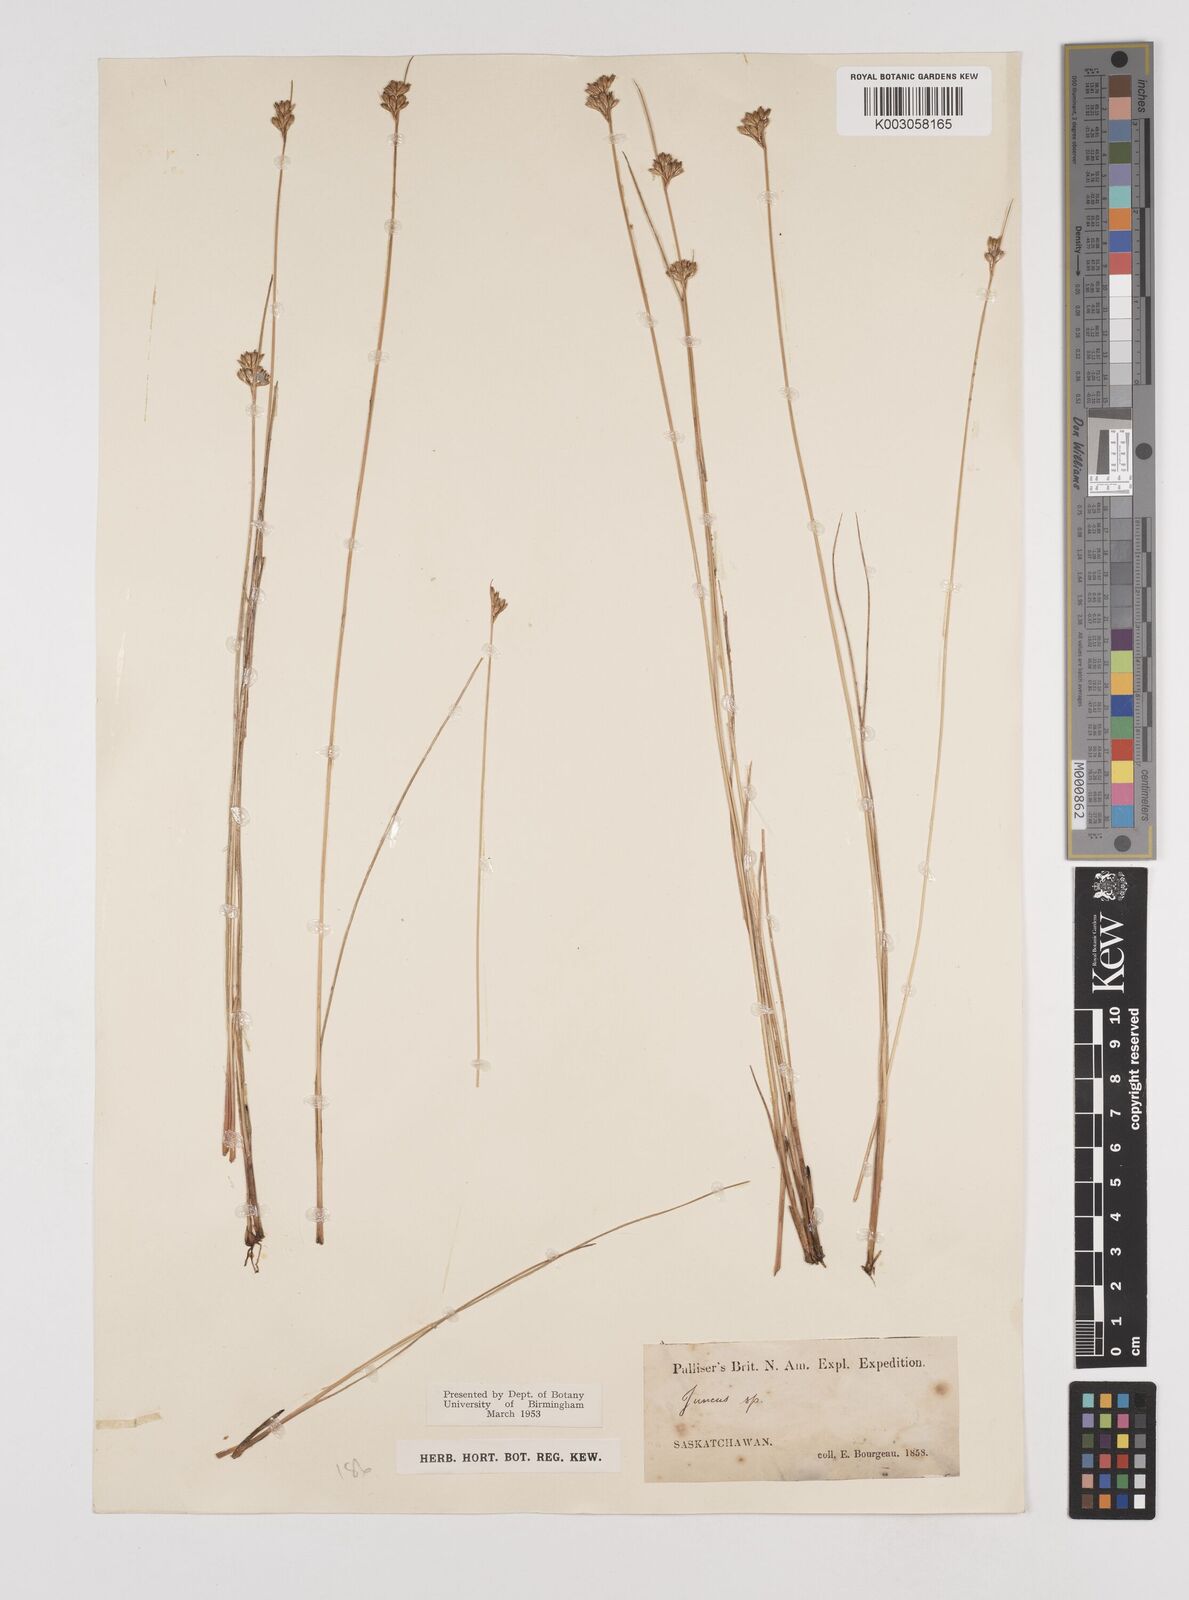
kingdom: Plantae
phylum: Tracheophyta
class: Liliopsida
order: Poales
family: Juncaceae
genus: Juncus
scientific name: Juncus
